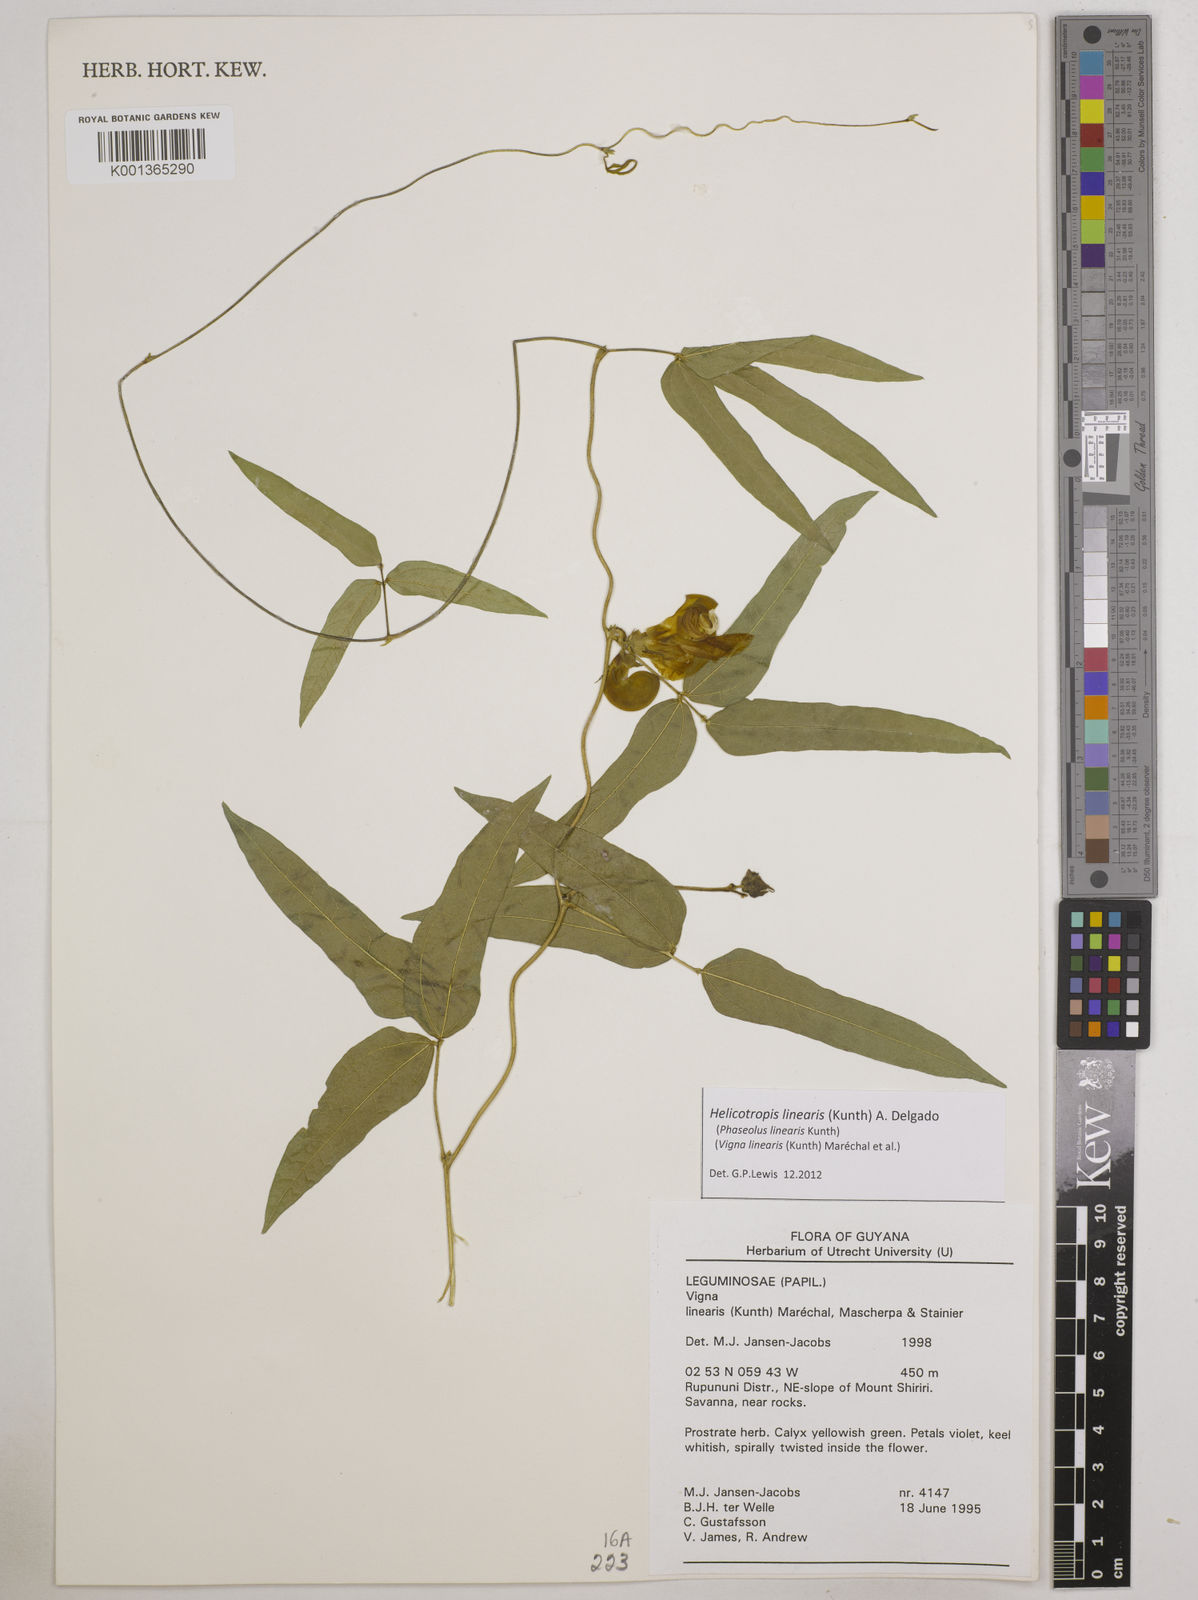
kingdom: Plantae
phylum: Tracheophyta
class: Magnoliopsida
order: Fabales
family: Fabaceae
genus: Helicotropis
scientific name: Helicotropis linearis
